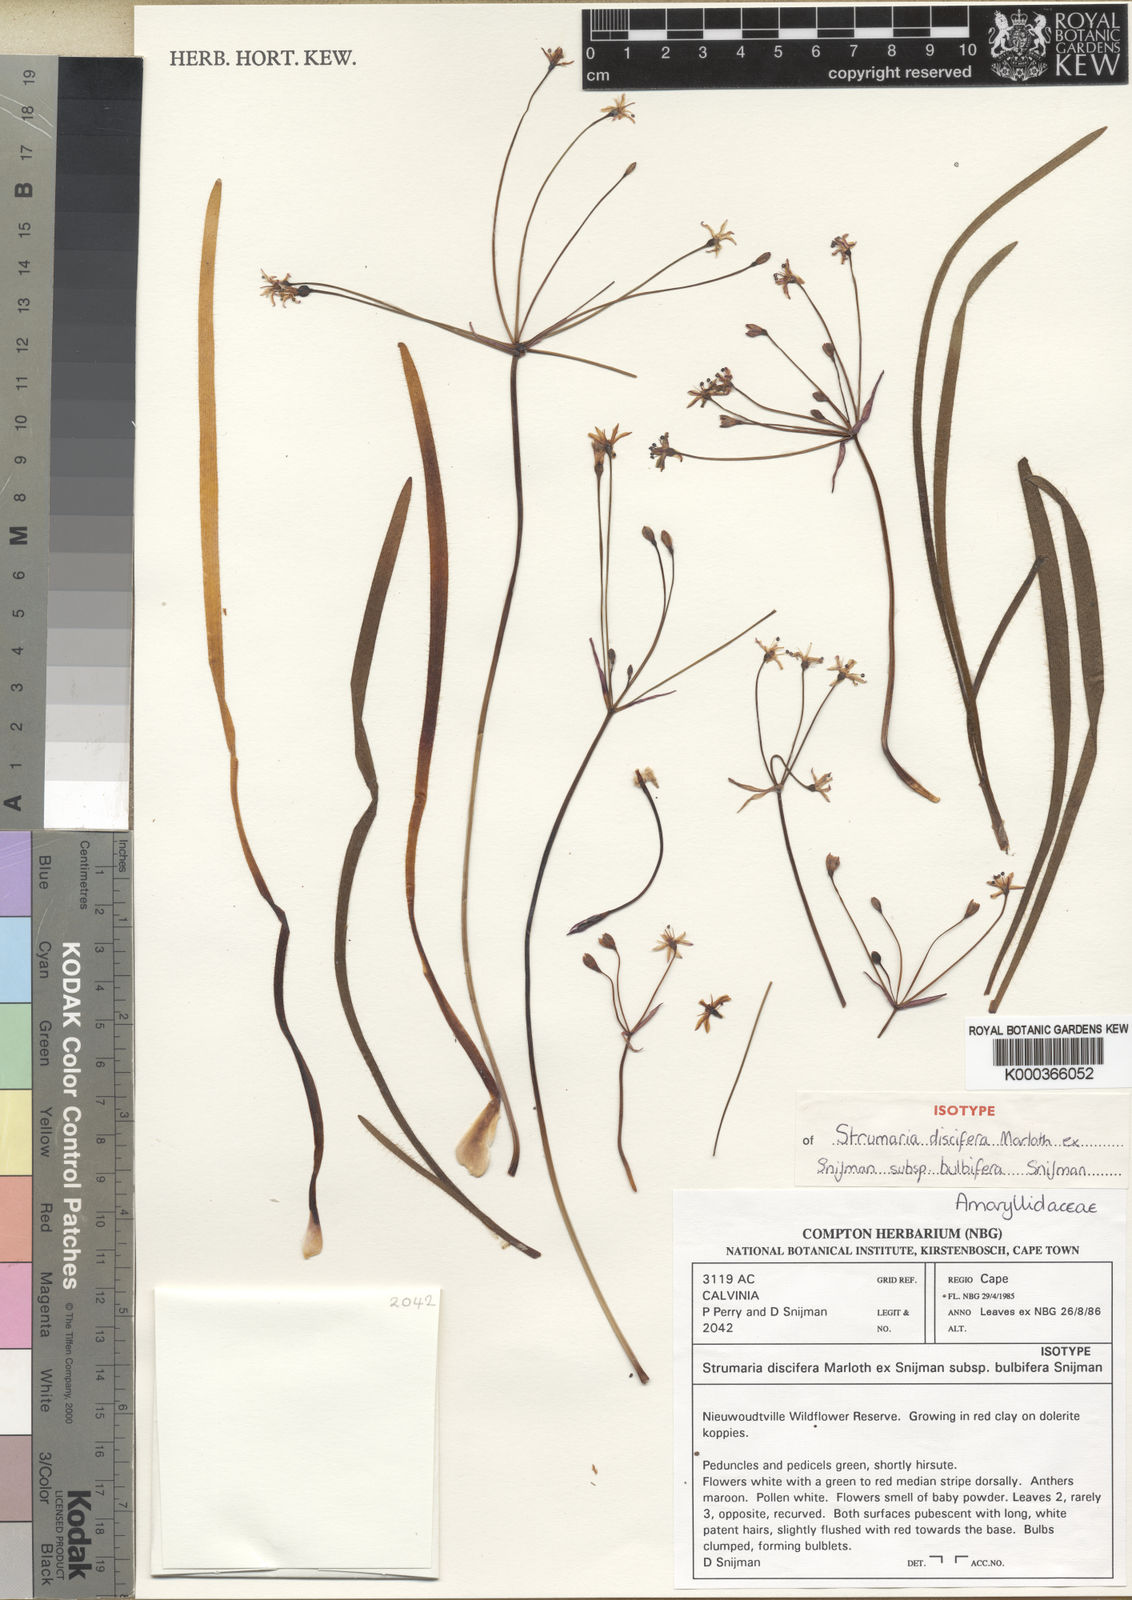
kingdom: Plantae
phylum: Tracheophyta
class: Liliopsida
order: Asparagales
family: Amaryllidaceae
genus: Strumaria
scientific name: Strumaria discifera
